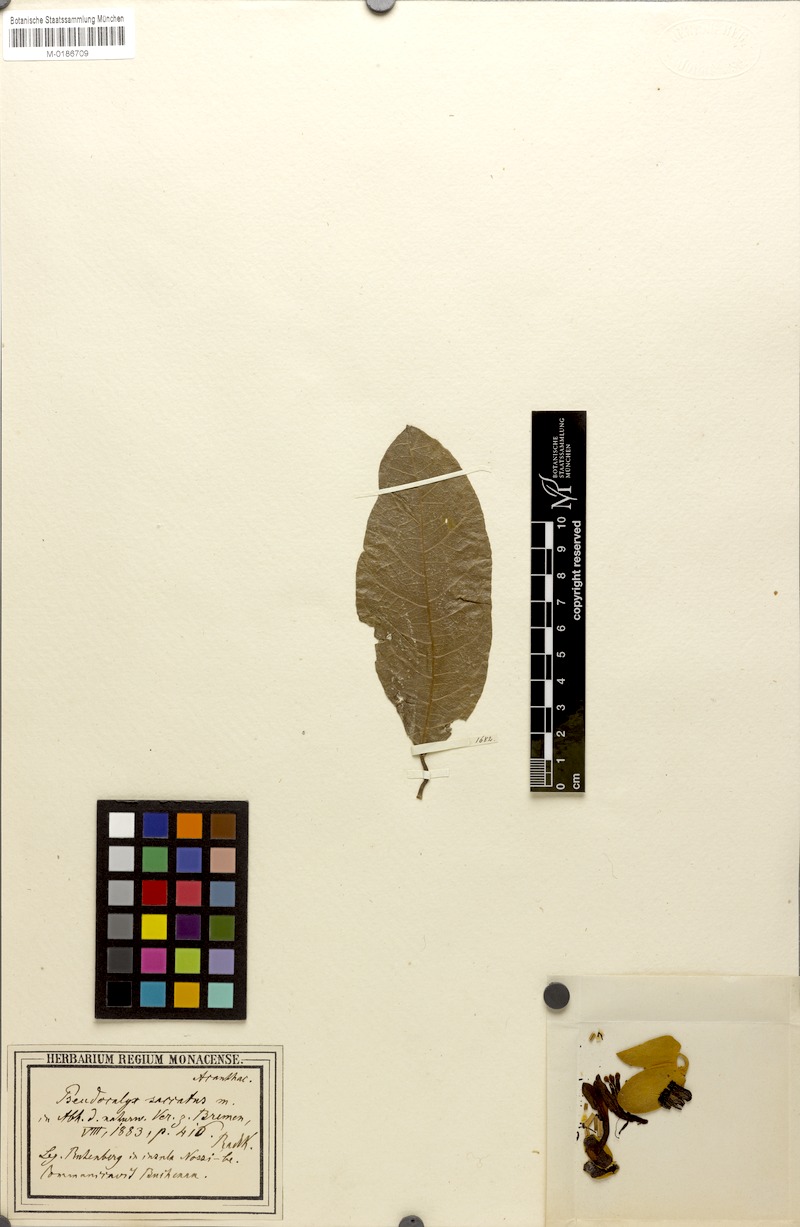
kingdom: Plantae
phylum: Tracheophyta
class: Magnoliopsida
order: Lamiales
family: Acanthaceae
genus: Pseudocalyx
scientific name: Pseudocalyx saccatus
